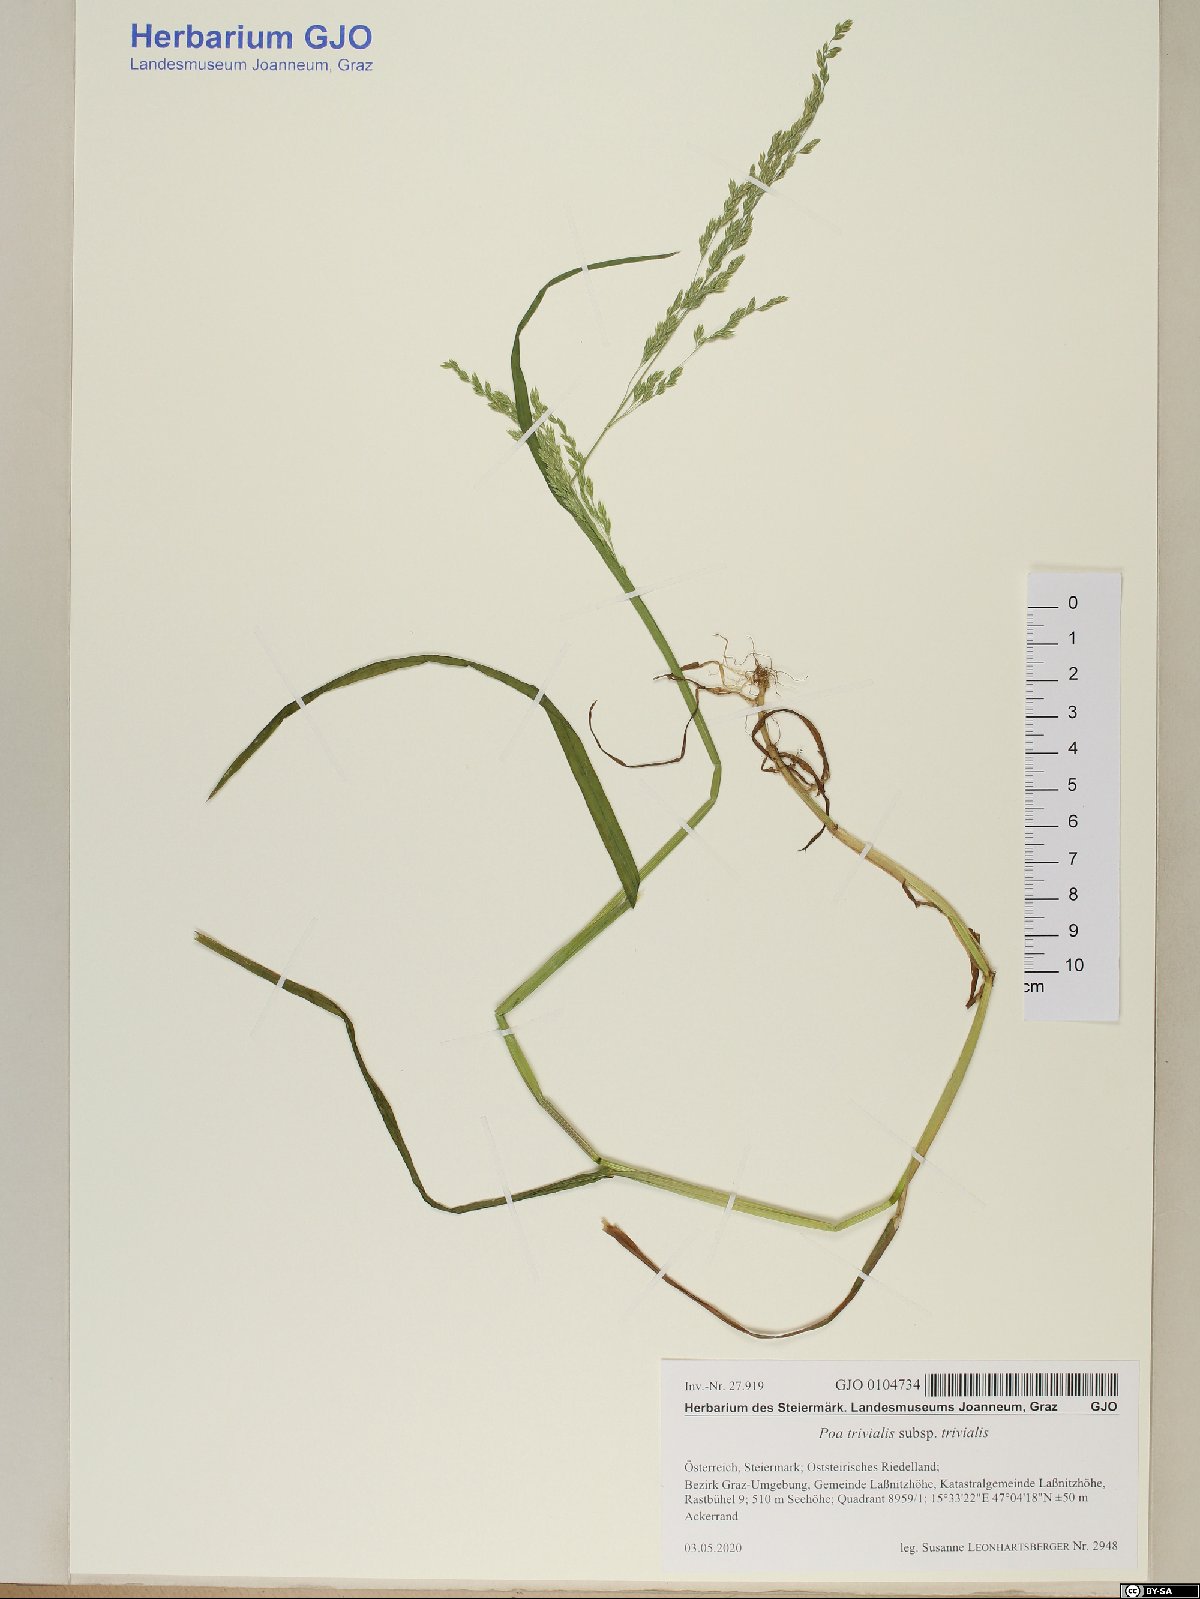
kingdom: Plantae
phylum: Tracheophyta
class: Liliopsida
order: Poales
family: Poaceae
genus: Poa
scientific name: Poa trivialis
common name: Rough bluegrass
